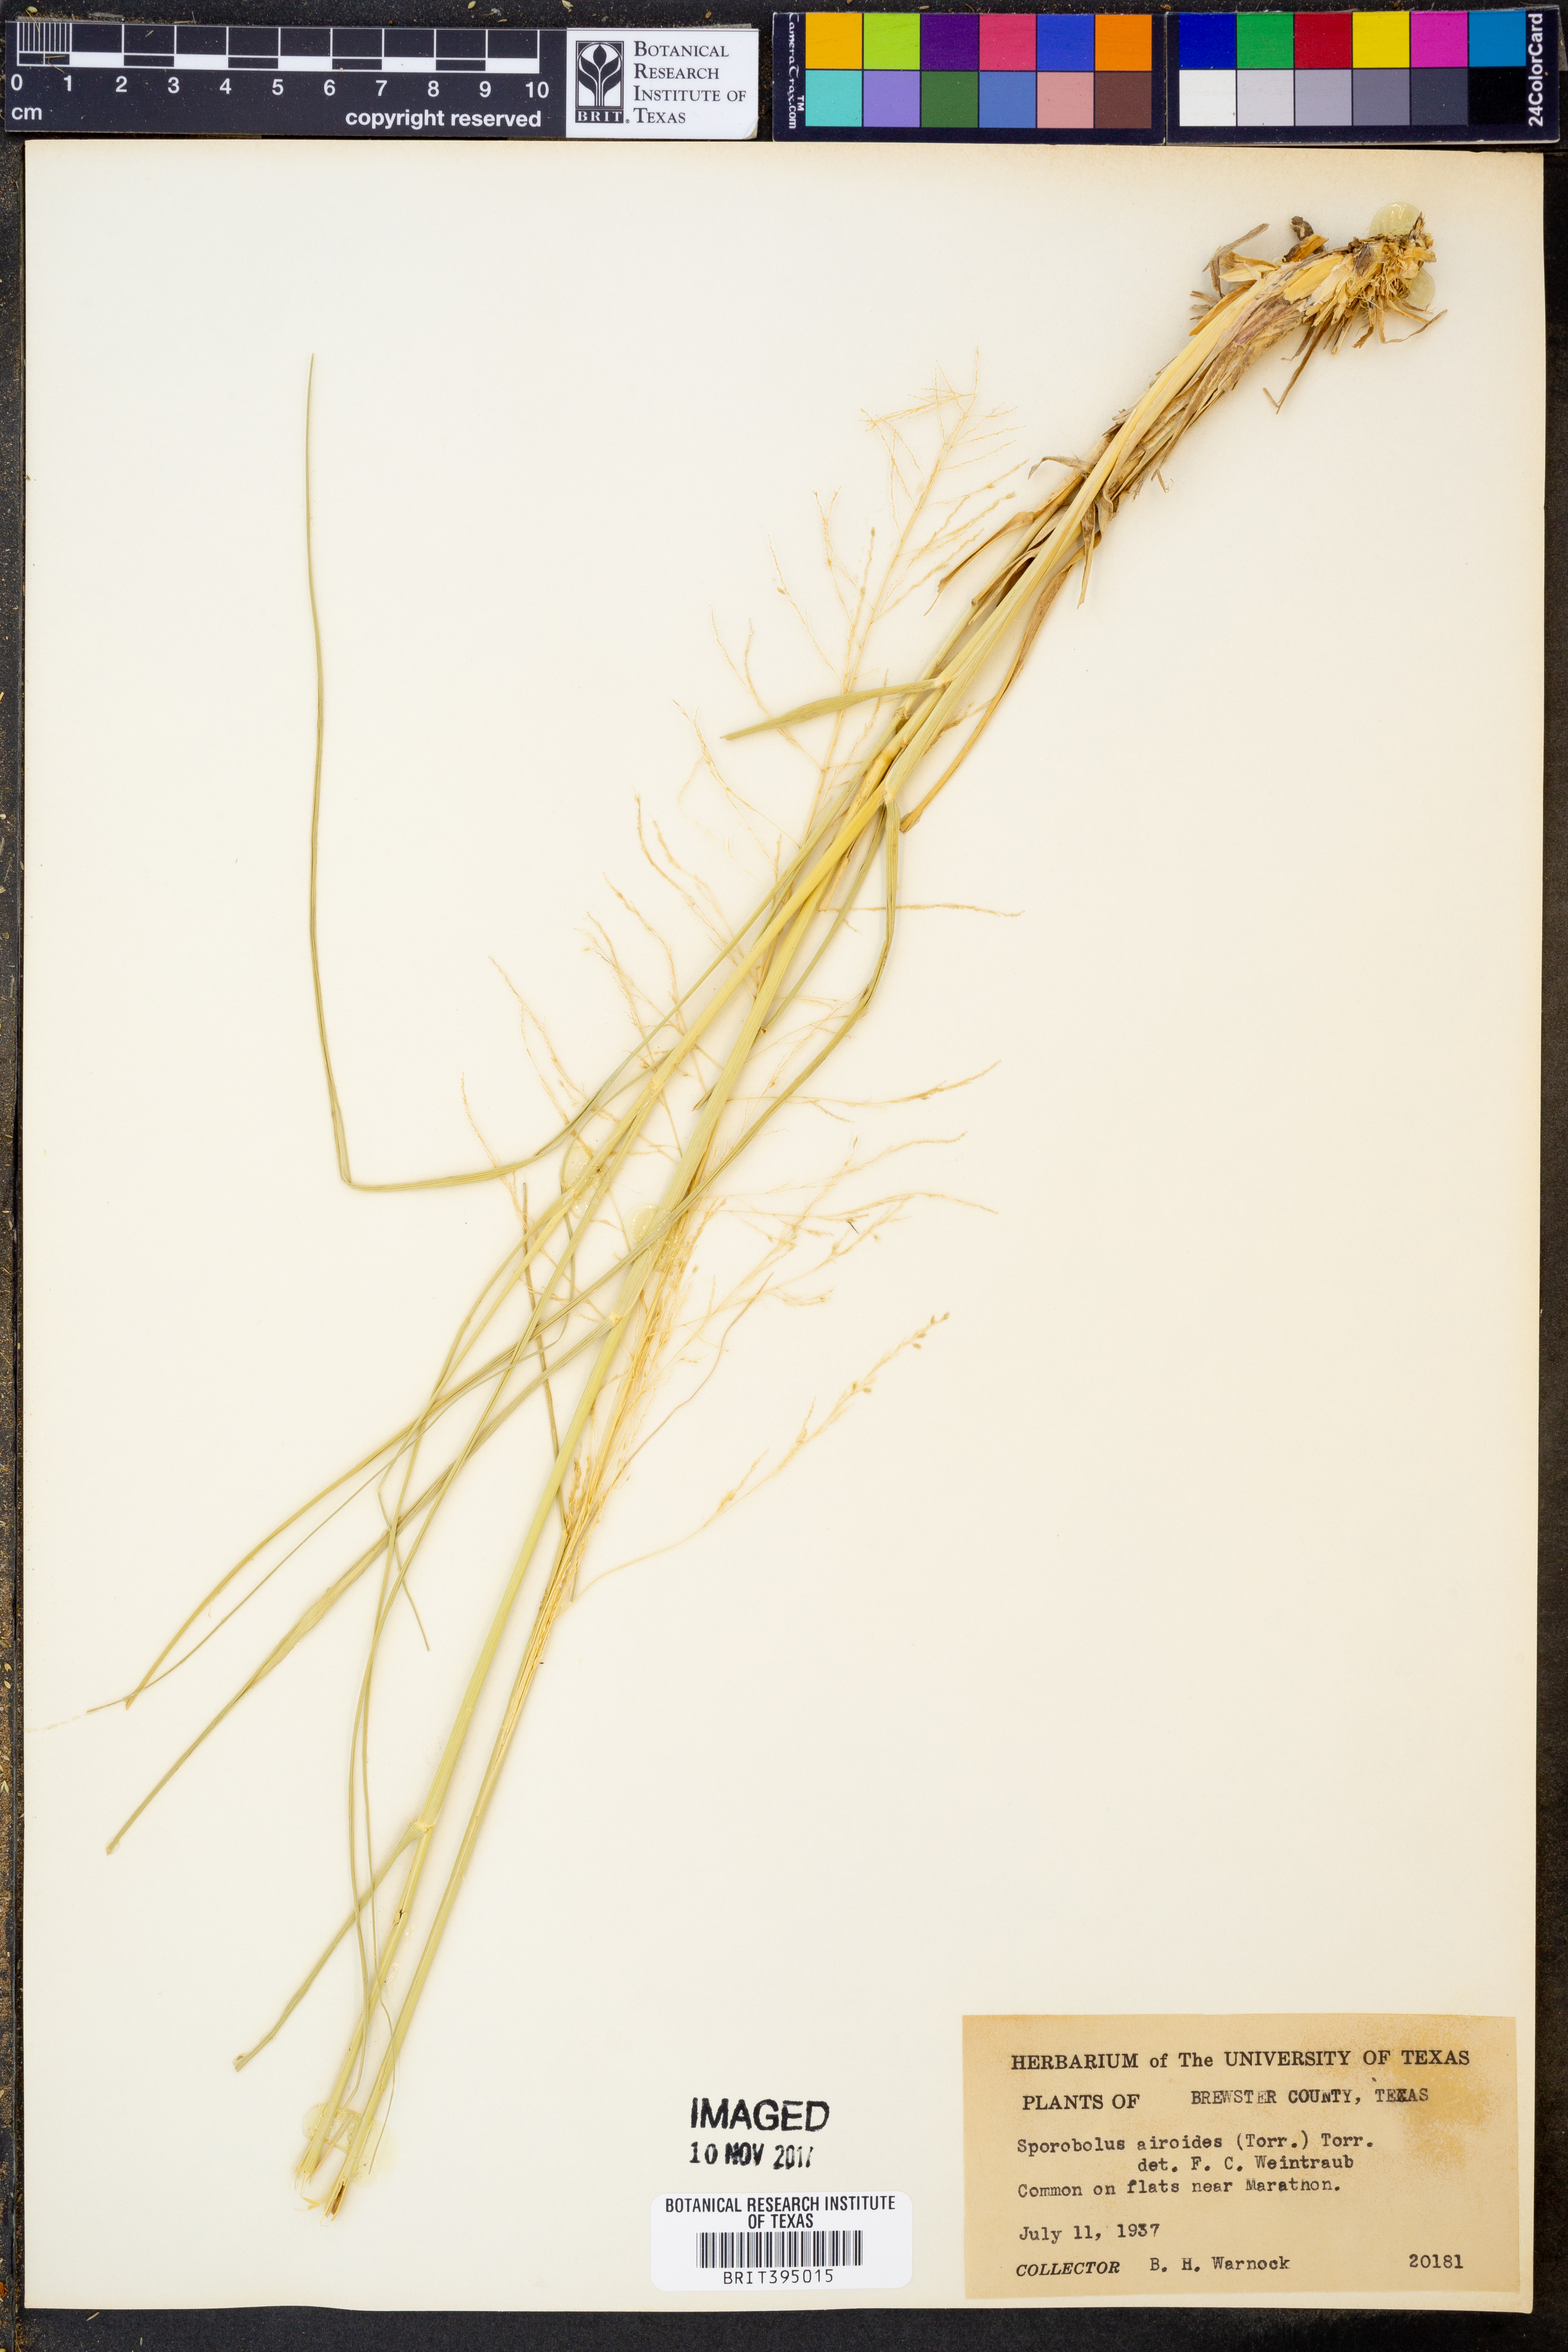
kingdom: Plantae
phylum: Tracheophyta
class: Liliopsida
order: Poales
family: Poaceae
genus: Sporobolus
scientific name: Sporobolus airoides
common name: Alkali sacaton
